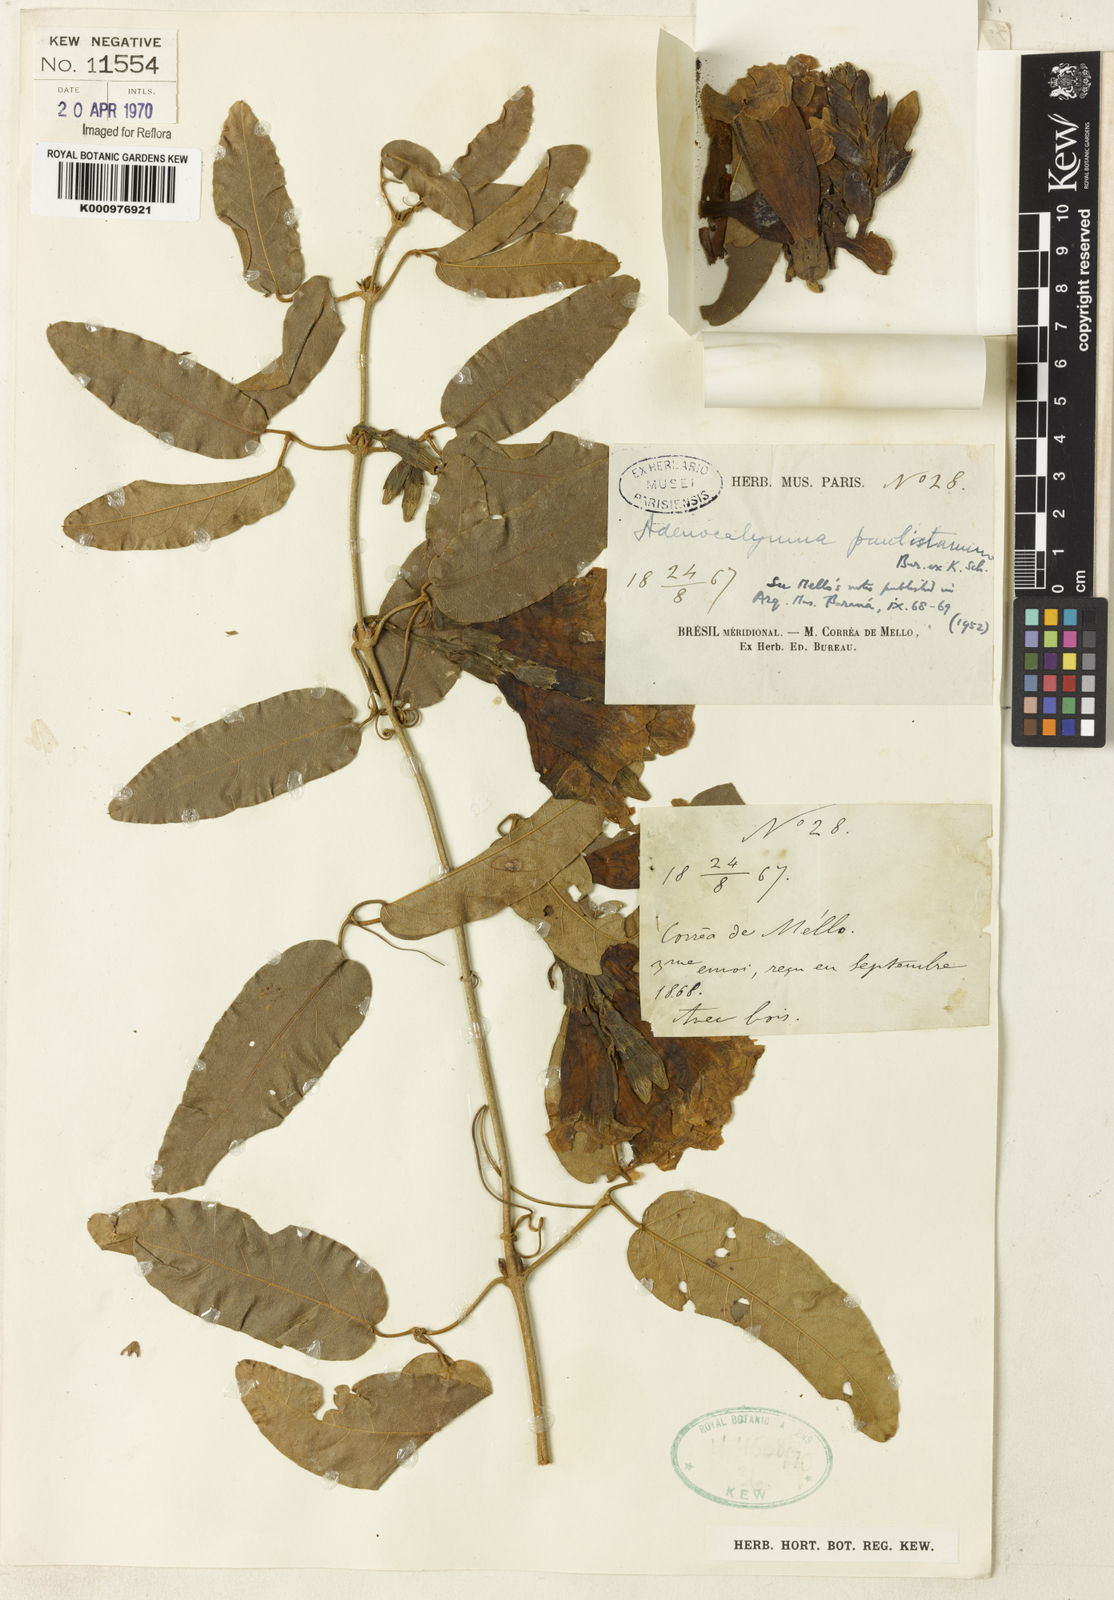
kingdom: Plantae
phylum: Tracheophyta
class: Magnoliopsida
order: Lamiales
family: Bignoniaceae
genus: Adenocalymma
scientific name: Adenocalymma paulistarum
